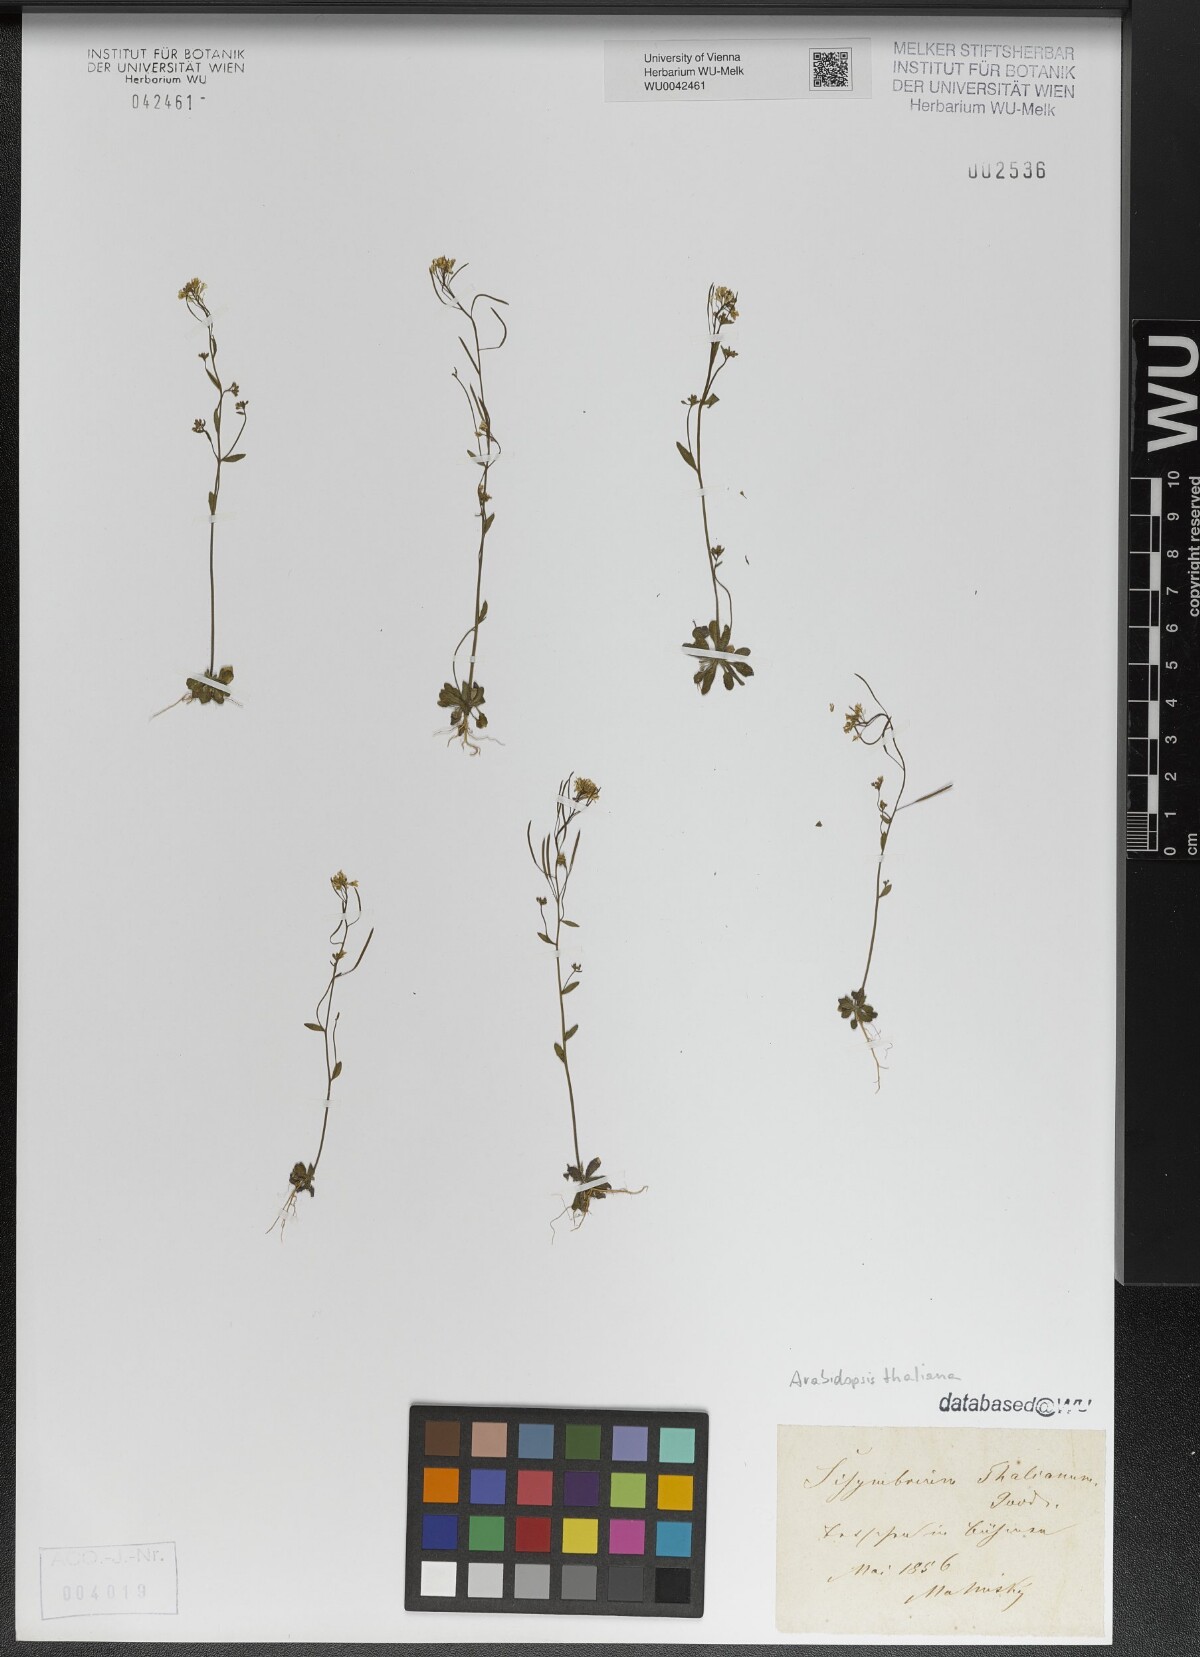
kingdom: Plantae
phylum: Tracheophyta
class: Magnoliopsida
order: Brassicales
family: Brassicaceae
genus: Arabidopsis
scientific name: Arabidopsis thaliana
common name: Thale cress
